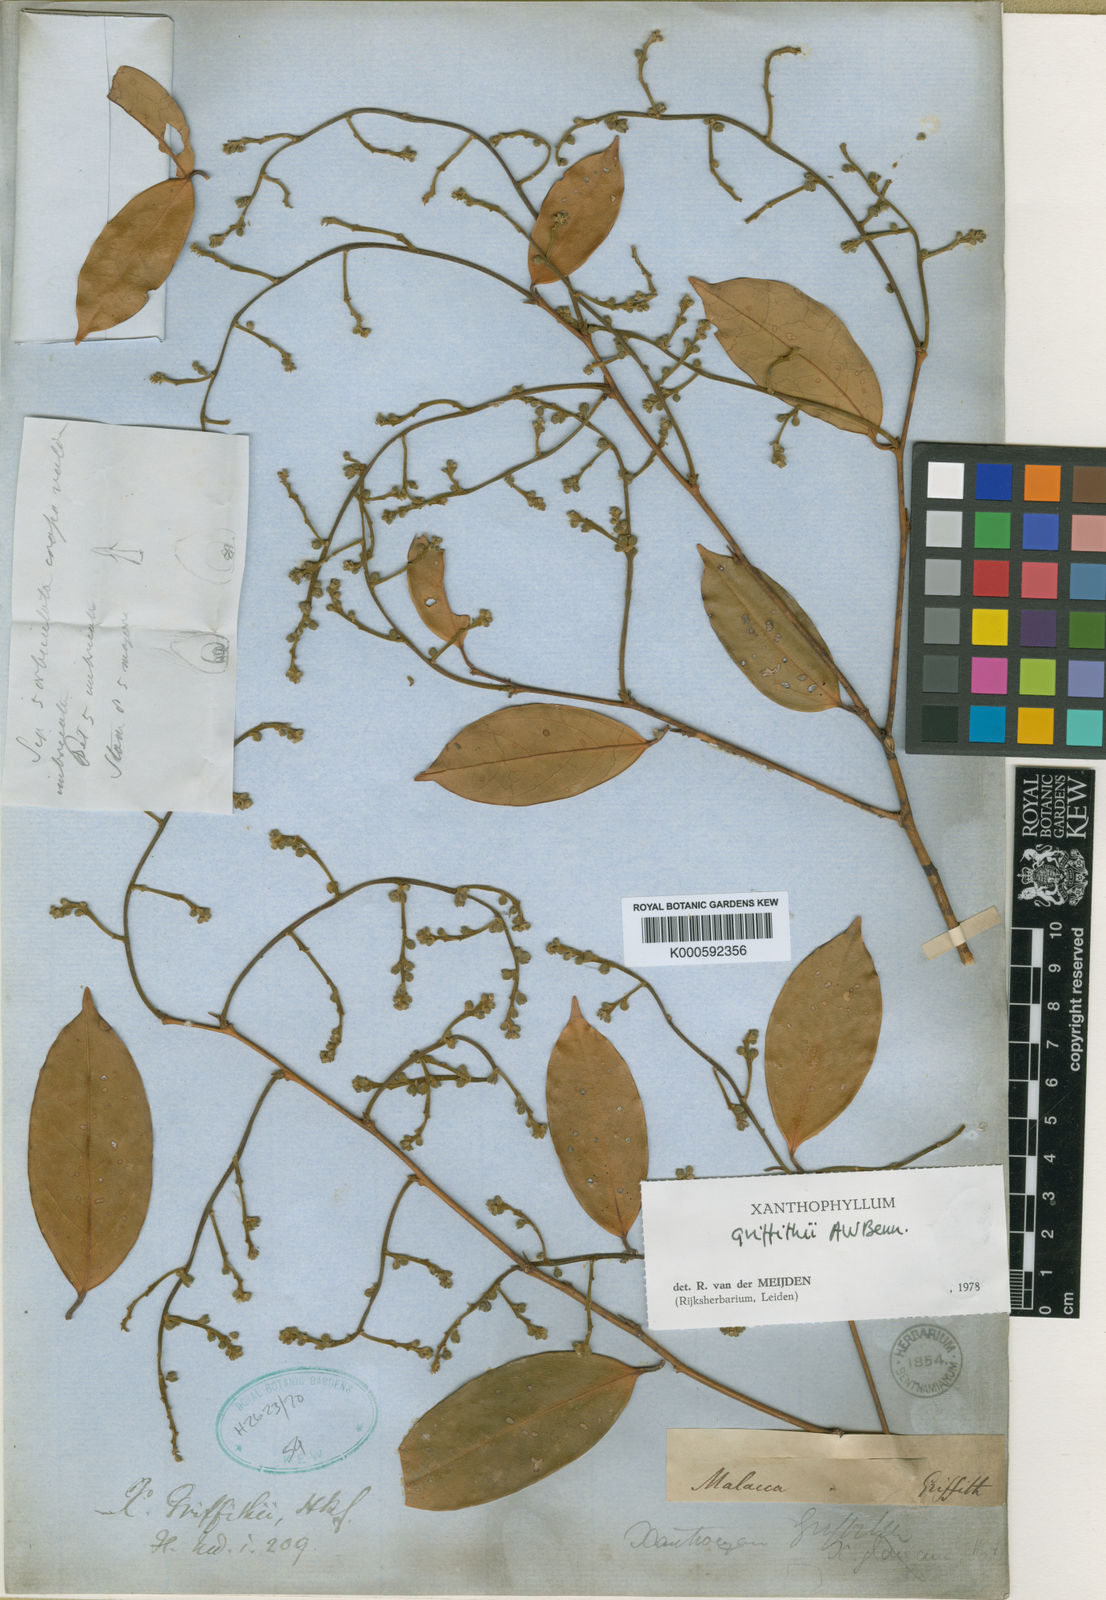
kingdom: Plantae
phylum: Tracheophyta
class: Magnoliopsida
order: Fabales
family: Polygalaceae
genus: Xanthophyllum
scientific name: Xanthophyllum griffithii
